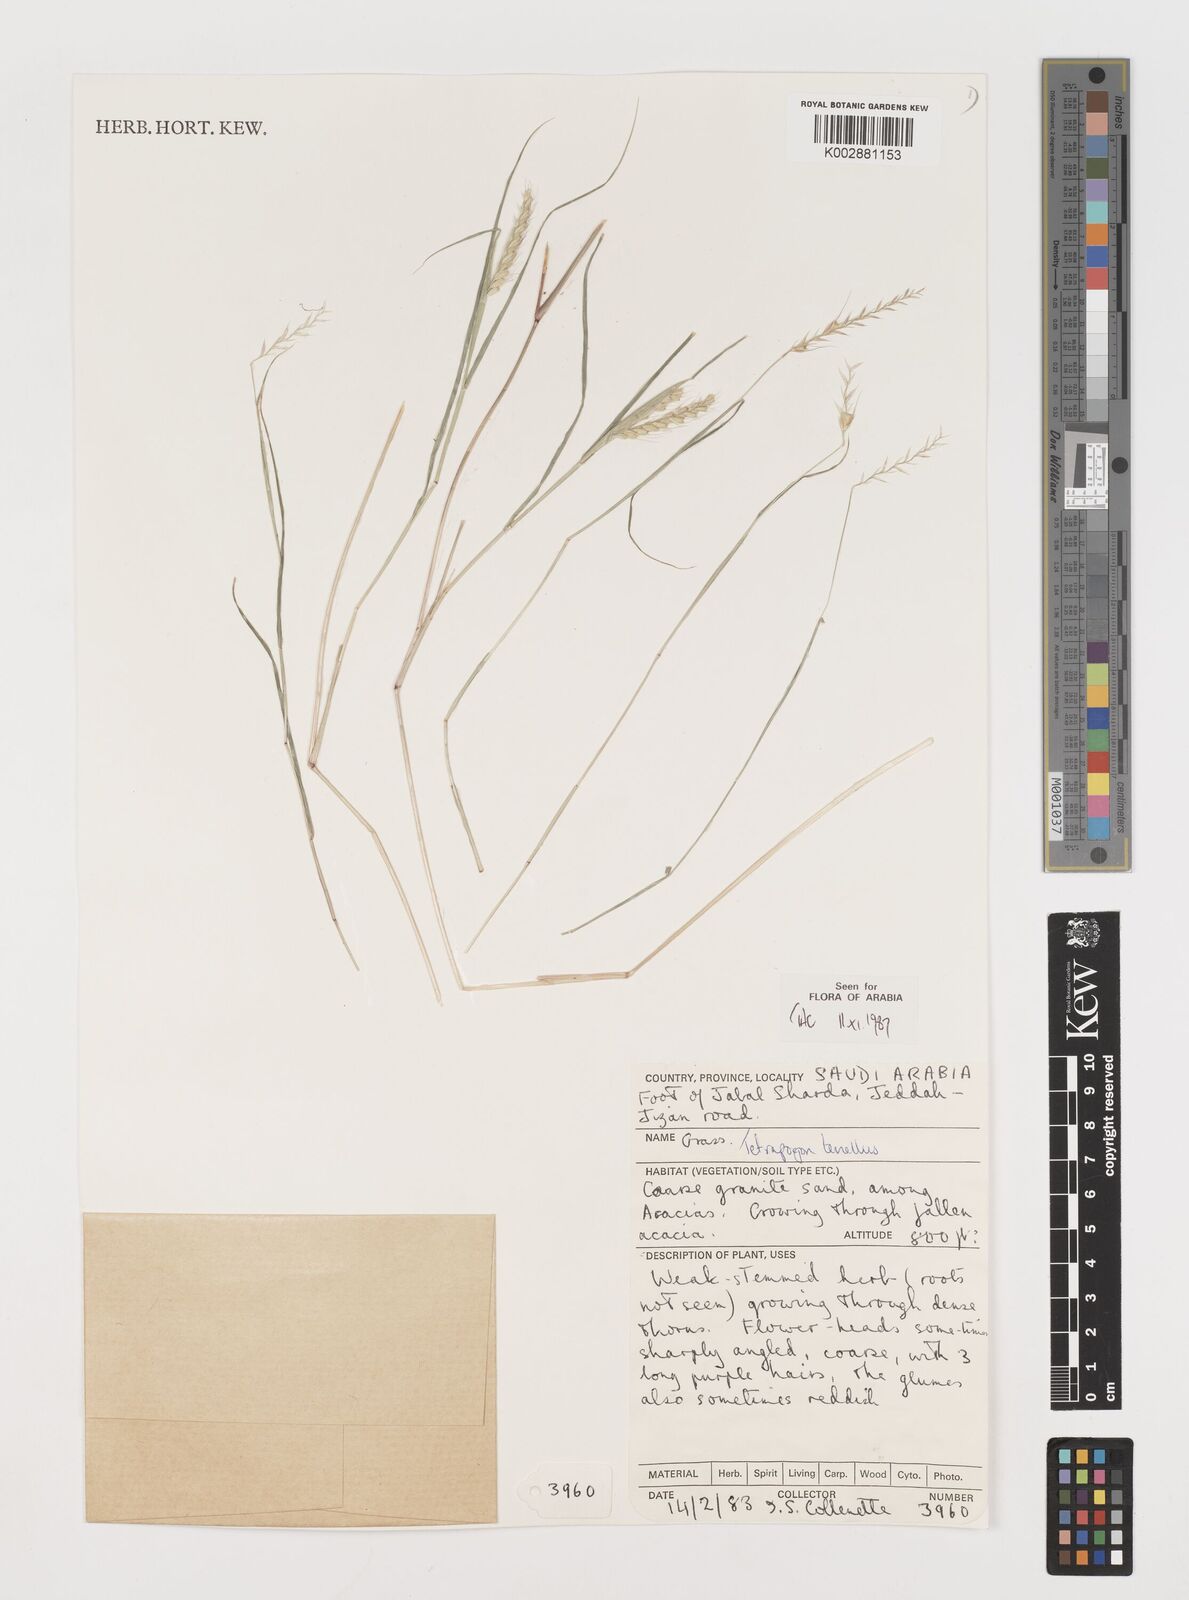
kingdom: Plantae
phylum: Tracheophyta
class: Liliopsida
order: Poales
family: Poaceae
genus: Tetrapogon
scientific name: Tetrapogon tenellus
